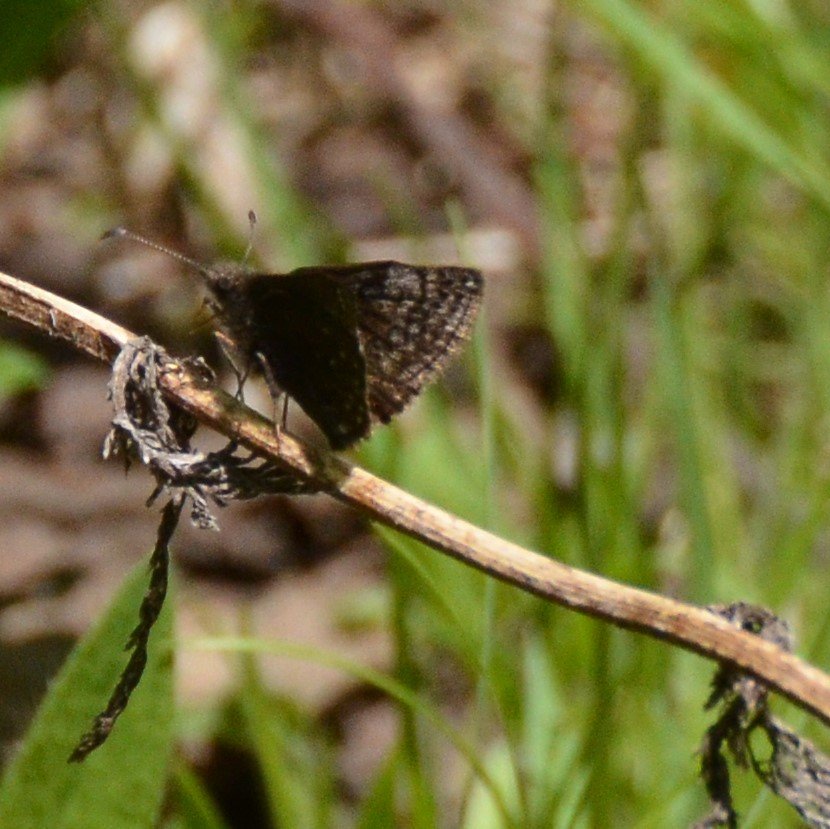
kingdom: Animalia
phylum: Arthropoda
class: Insecta
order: Lepidoptera
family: Hesperiidae
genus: Erynnis
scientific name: Erynnis icelus
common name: Dreamy Duskywing
